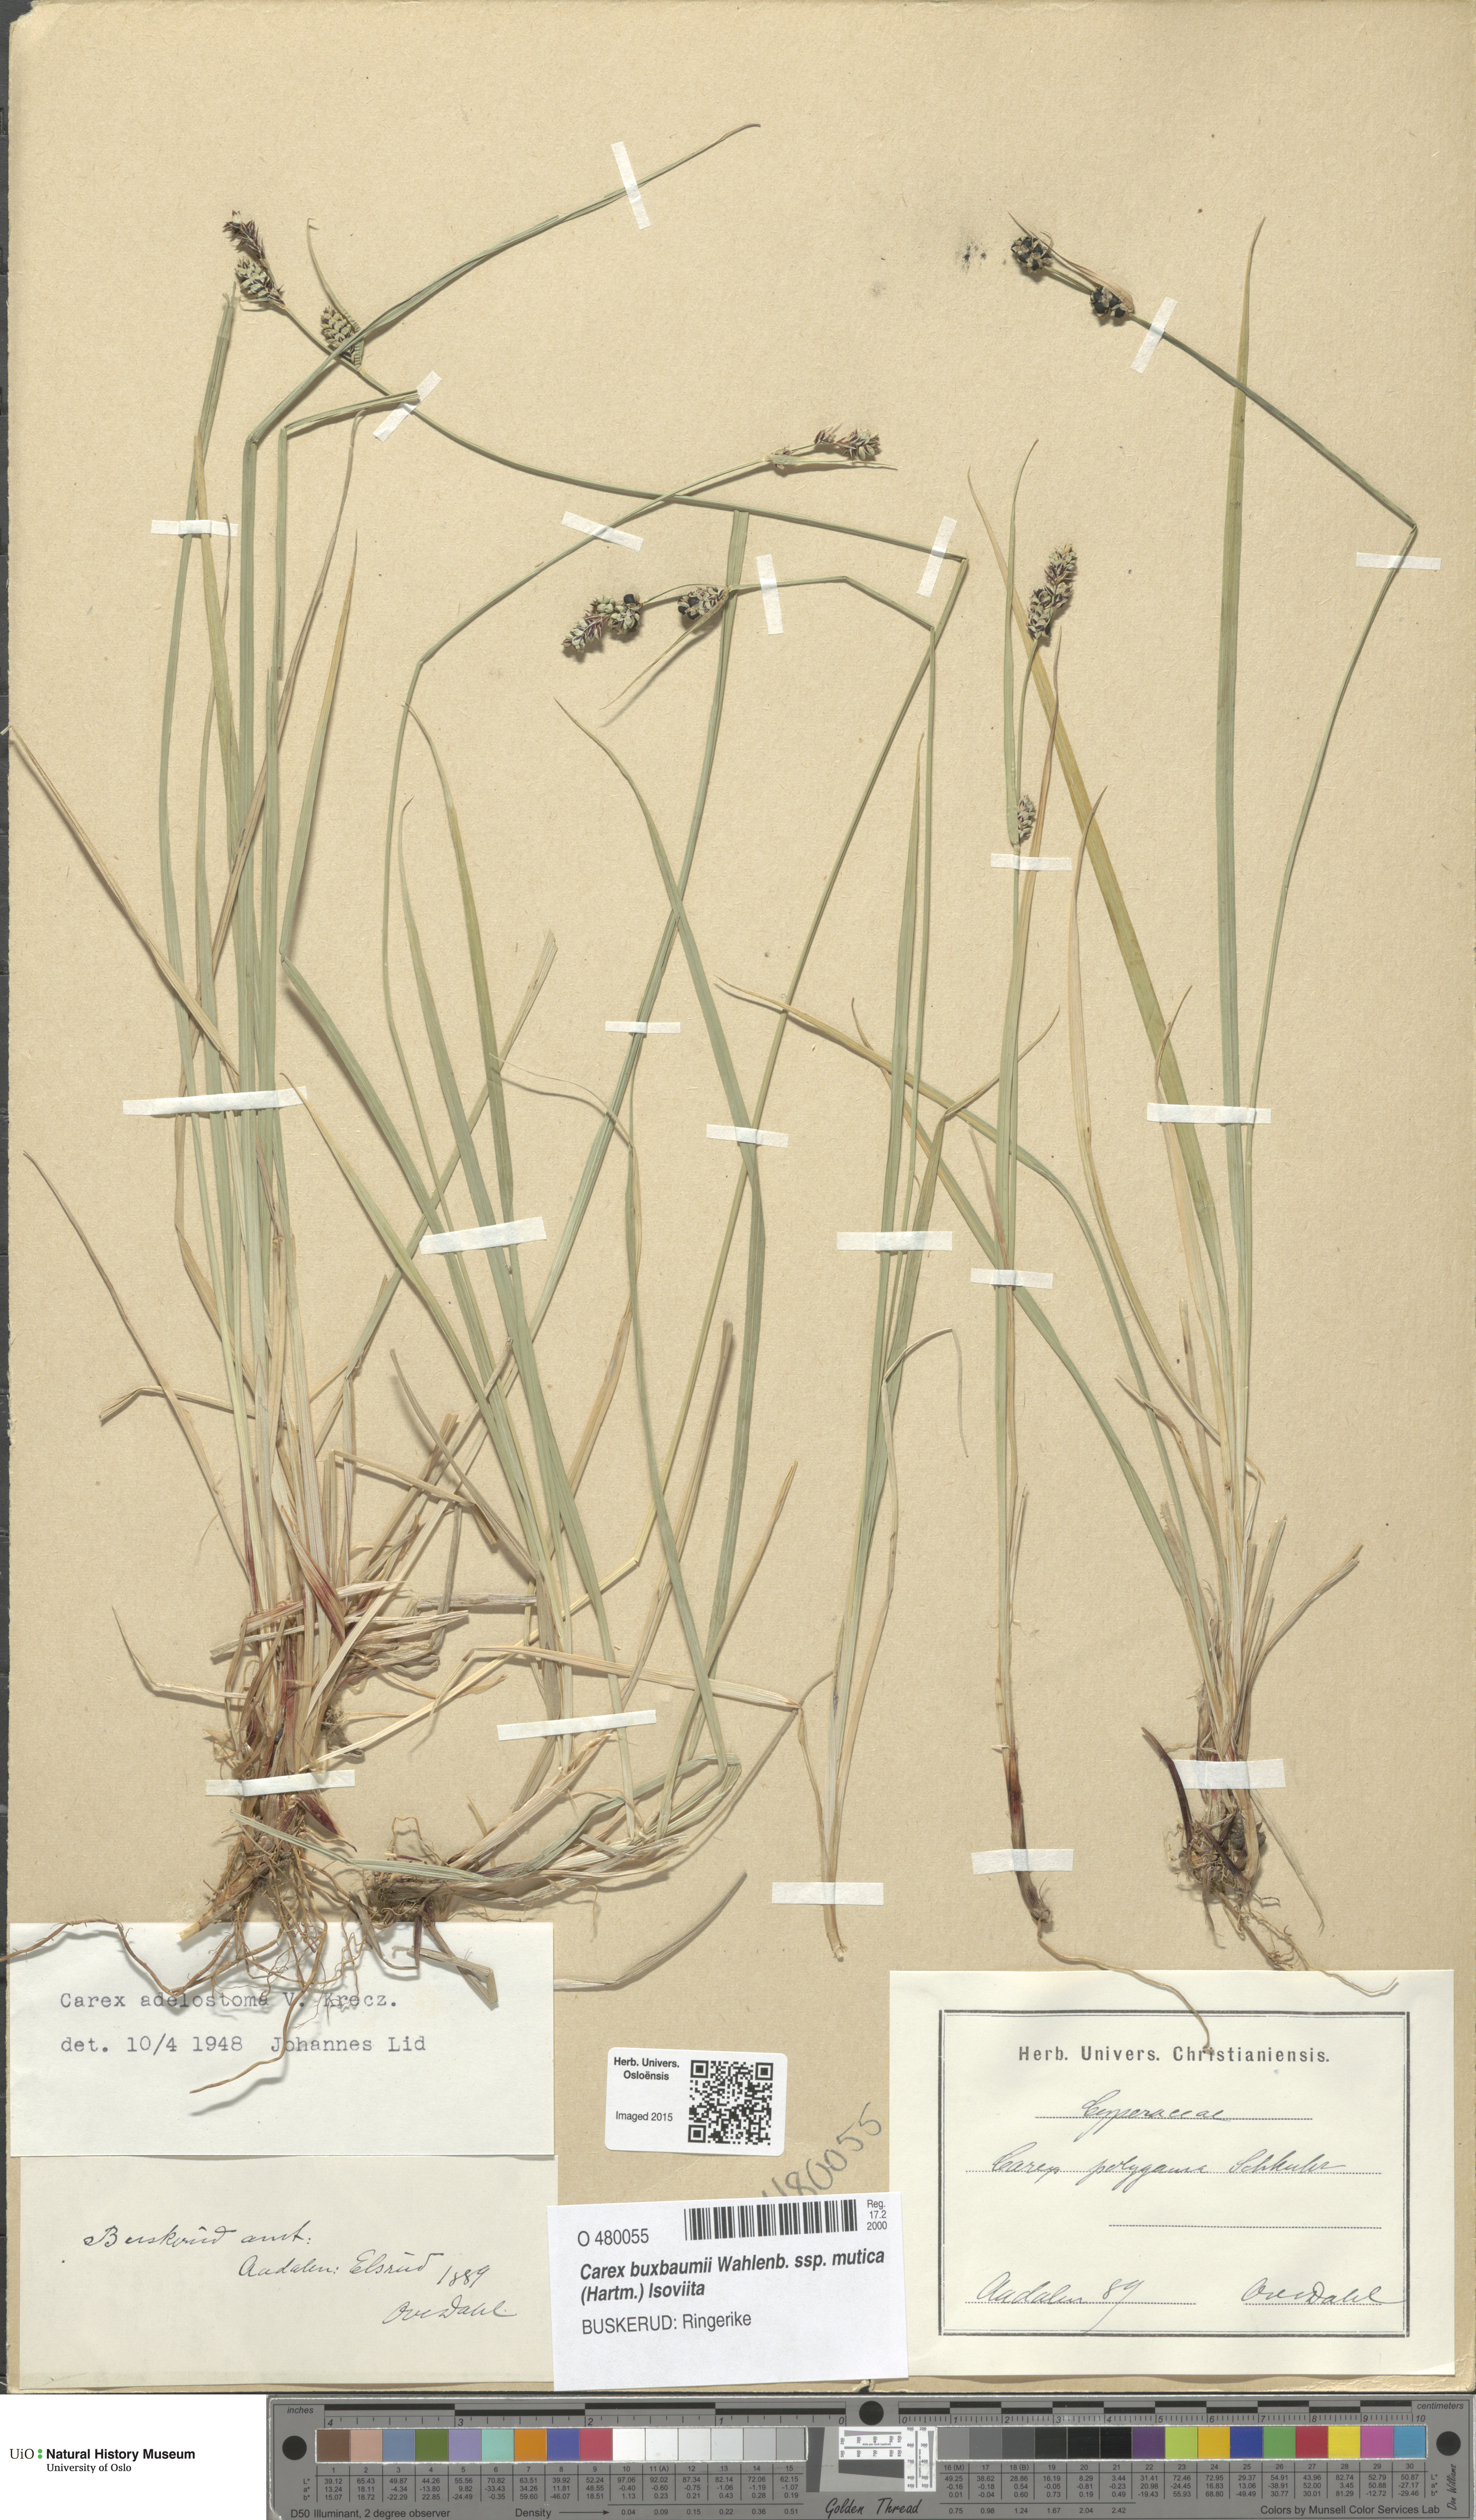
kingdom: Plantae
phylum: Tracheophyta
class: Liliopsida
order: Poales
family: Cyperaceae
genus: Carex
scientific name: Carex adelostoma
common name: Circumpolar sedge
